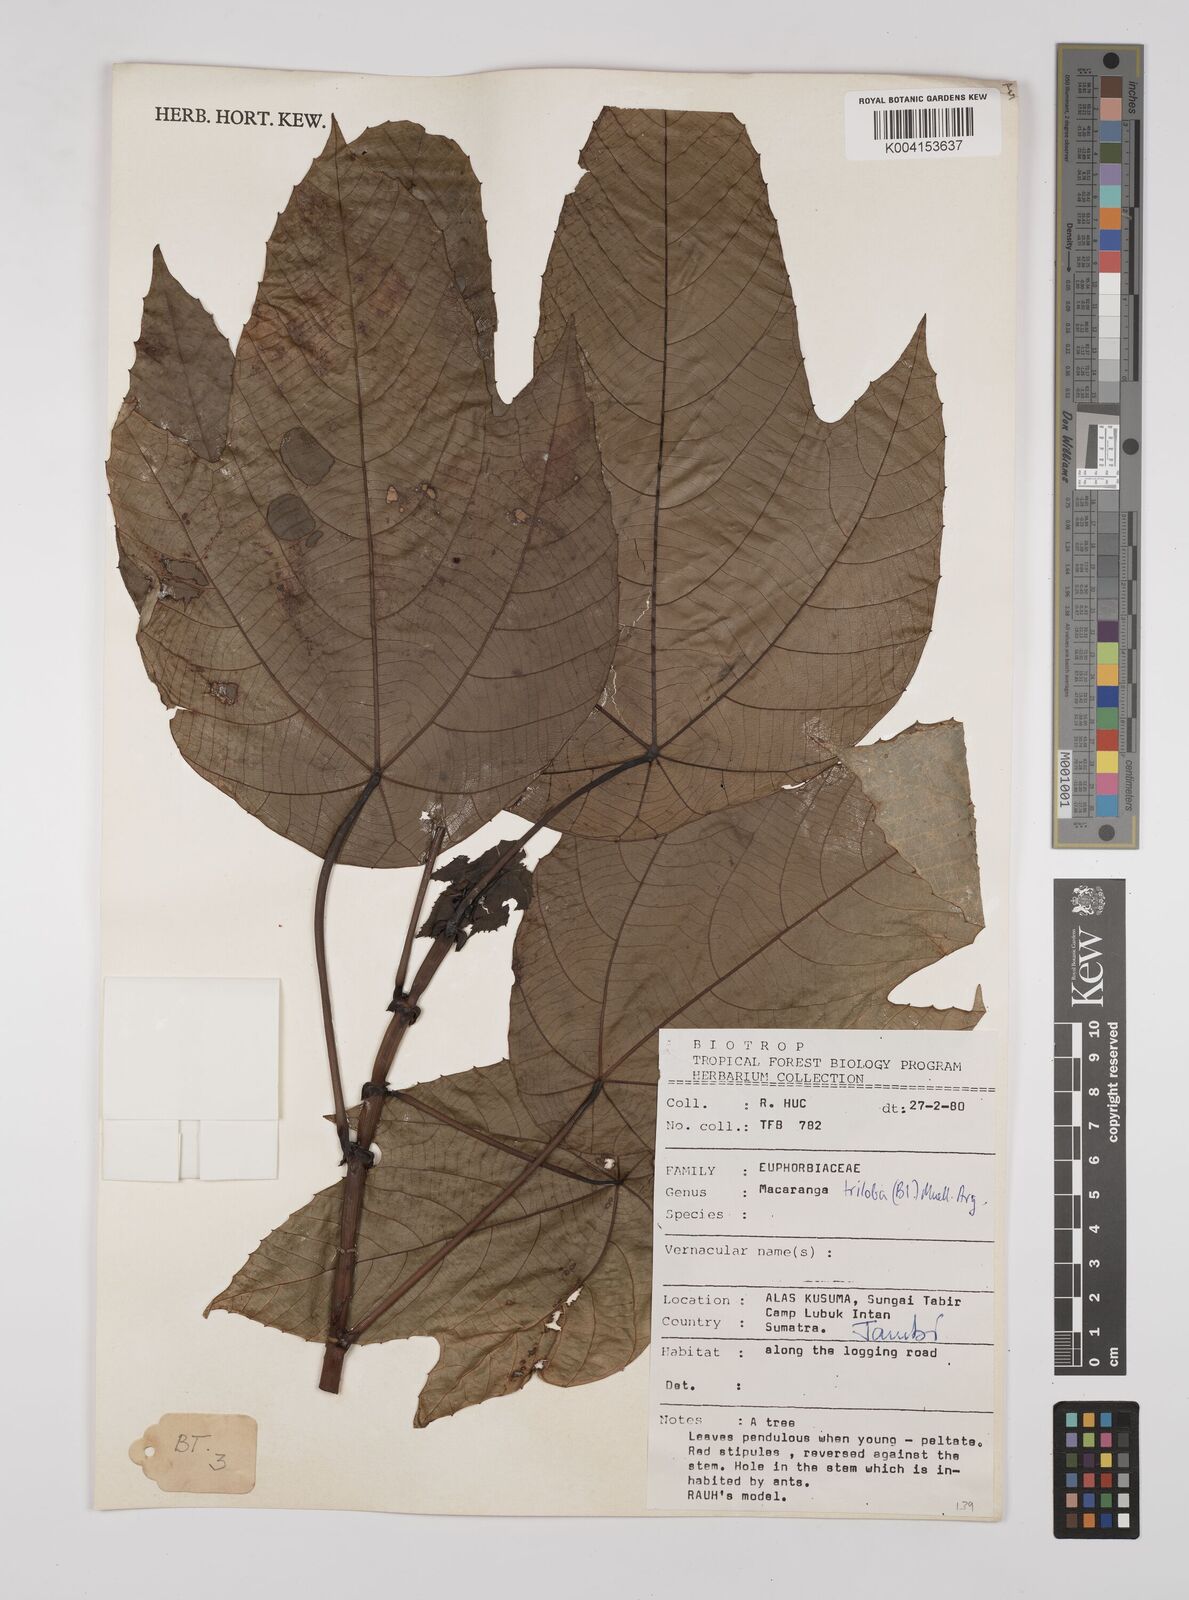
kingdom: Plantae
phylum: Tracheophyta
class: Magnoliopsida
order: Malpighiales
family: Euphorbiaceae
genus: Macaranga
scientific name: Macaranga triloba
